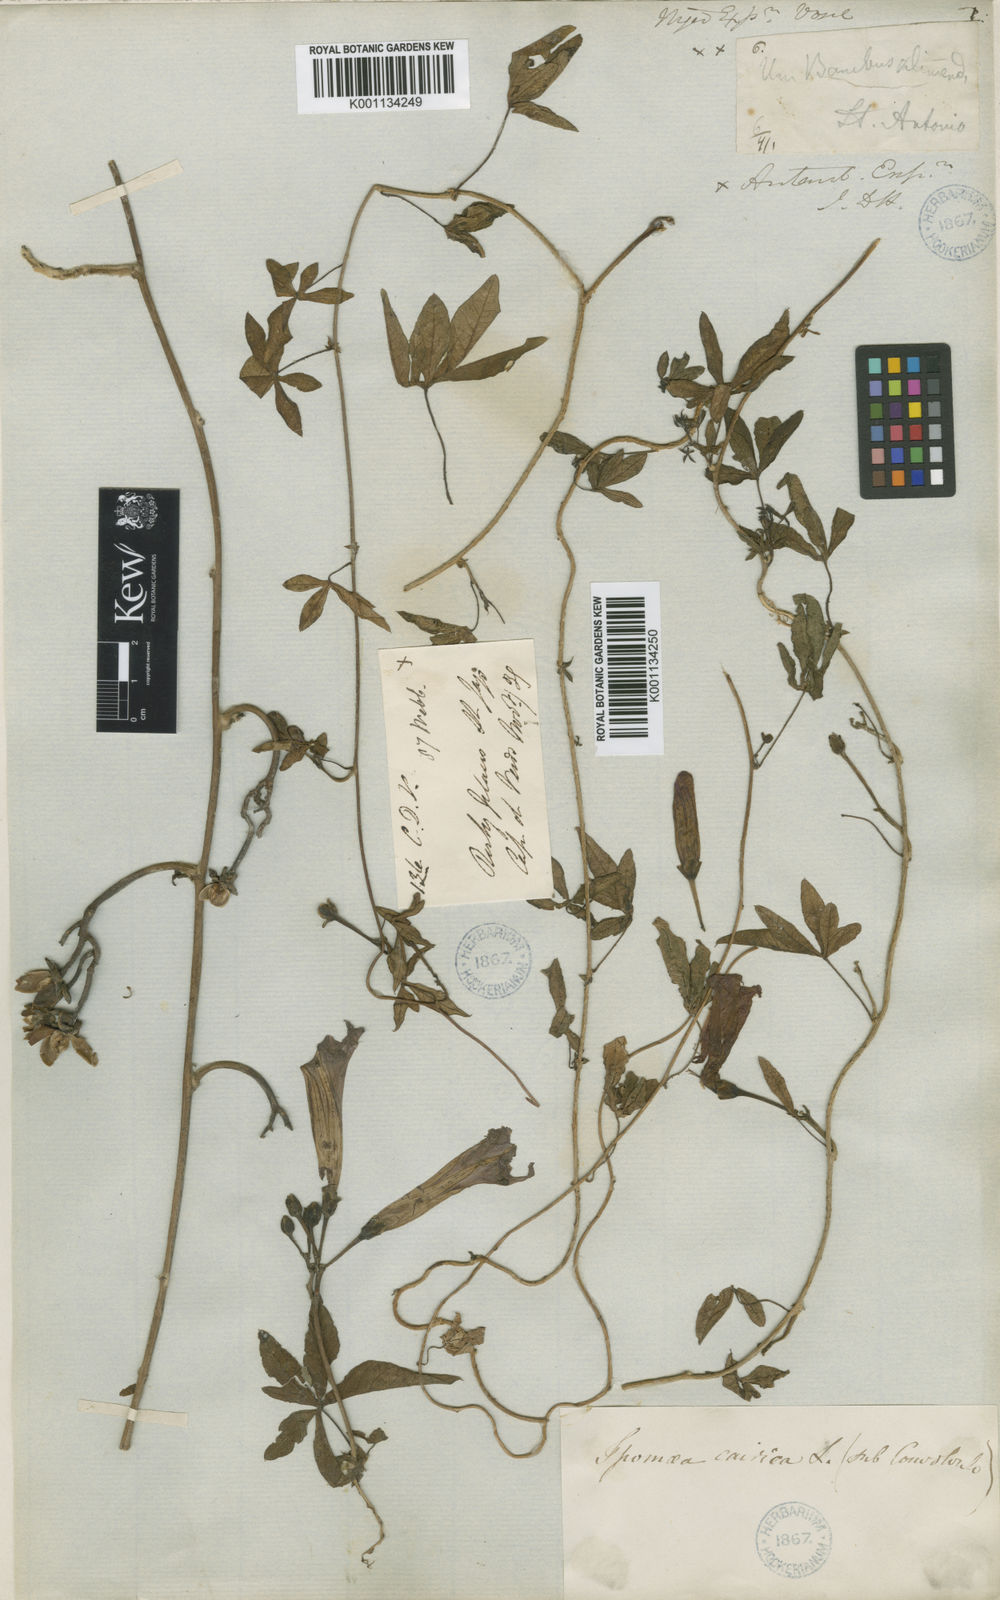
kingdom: Plantae
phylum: Tracheophyta
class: Magnoliopsida
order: Solanales
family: Convolvulaceae
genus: Ipomoea
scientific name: Ipomoea cairica
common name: Mile a minute vine
